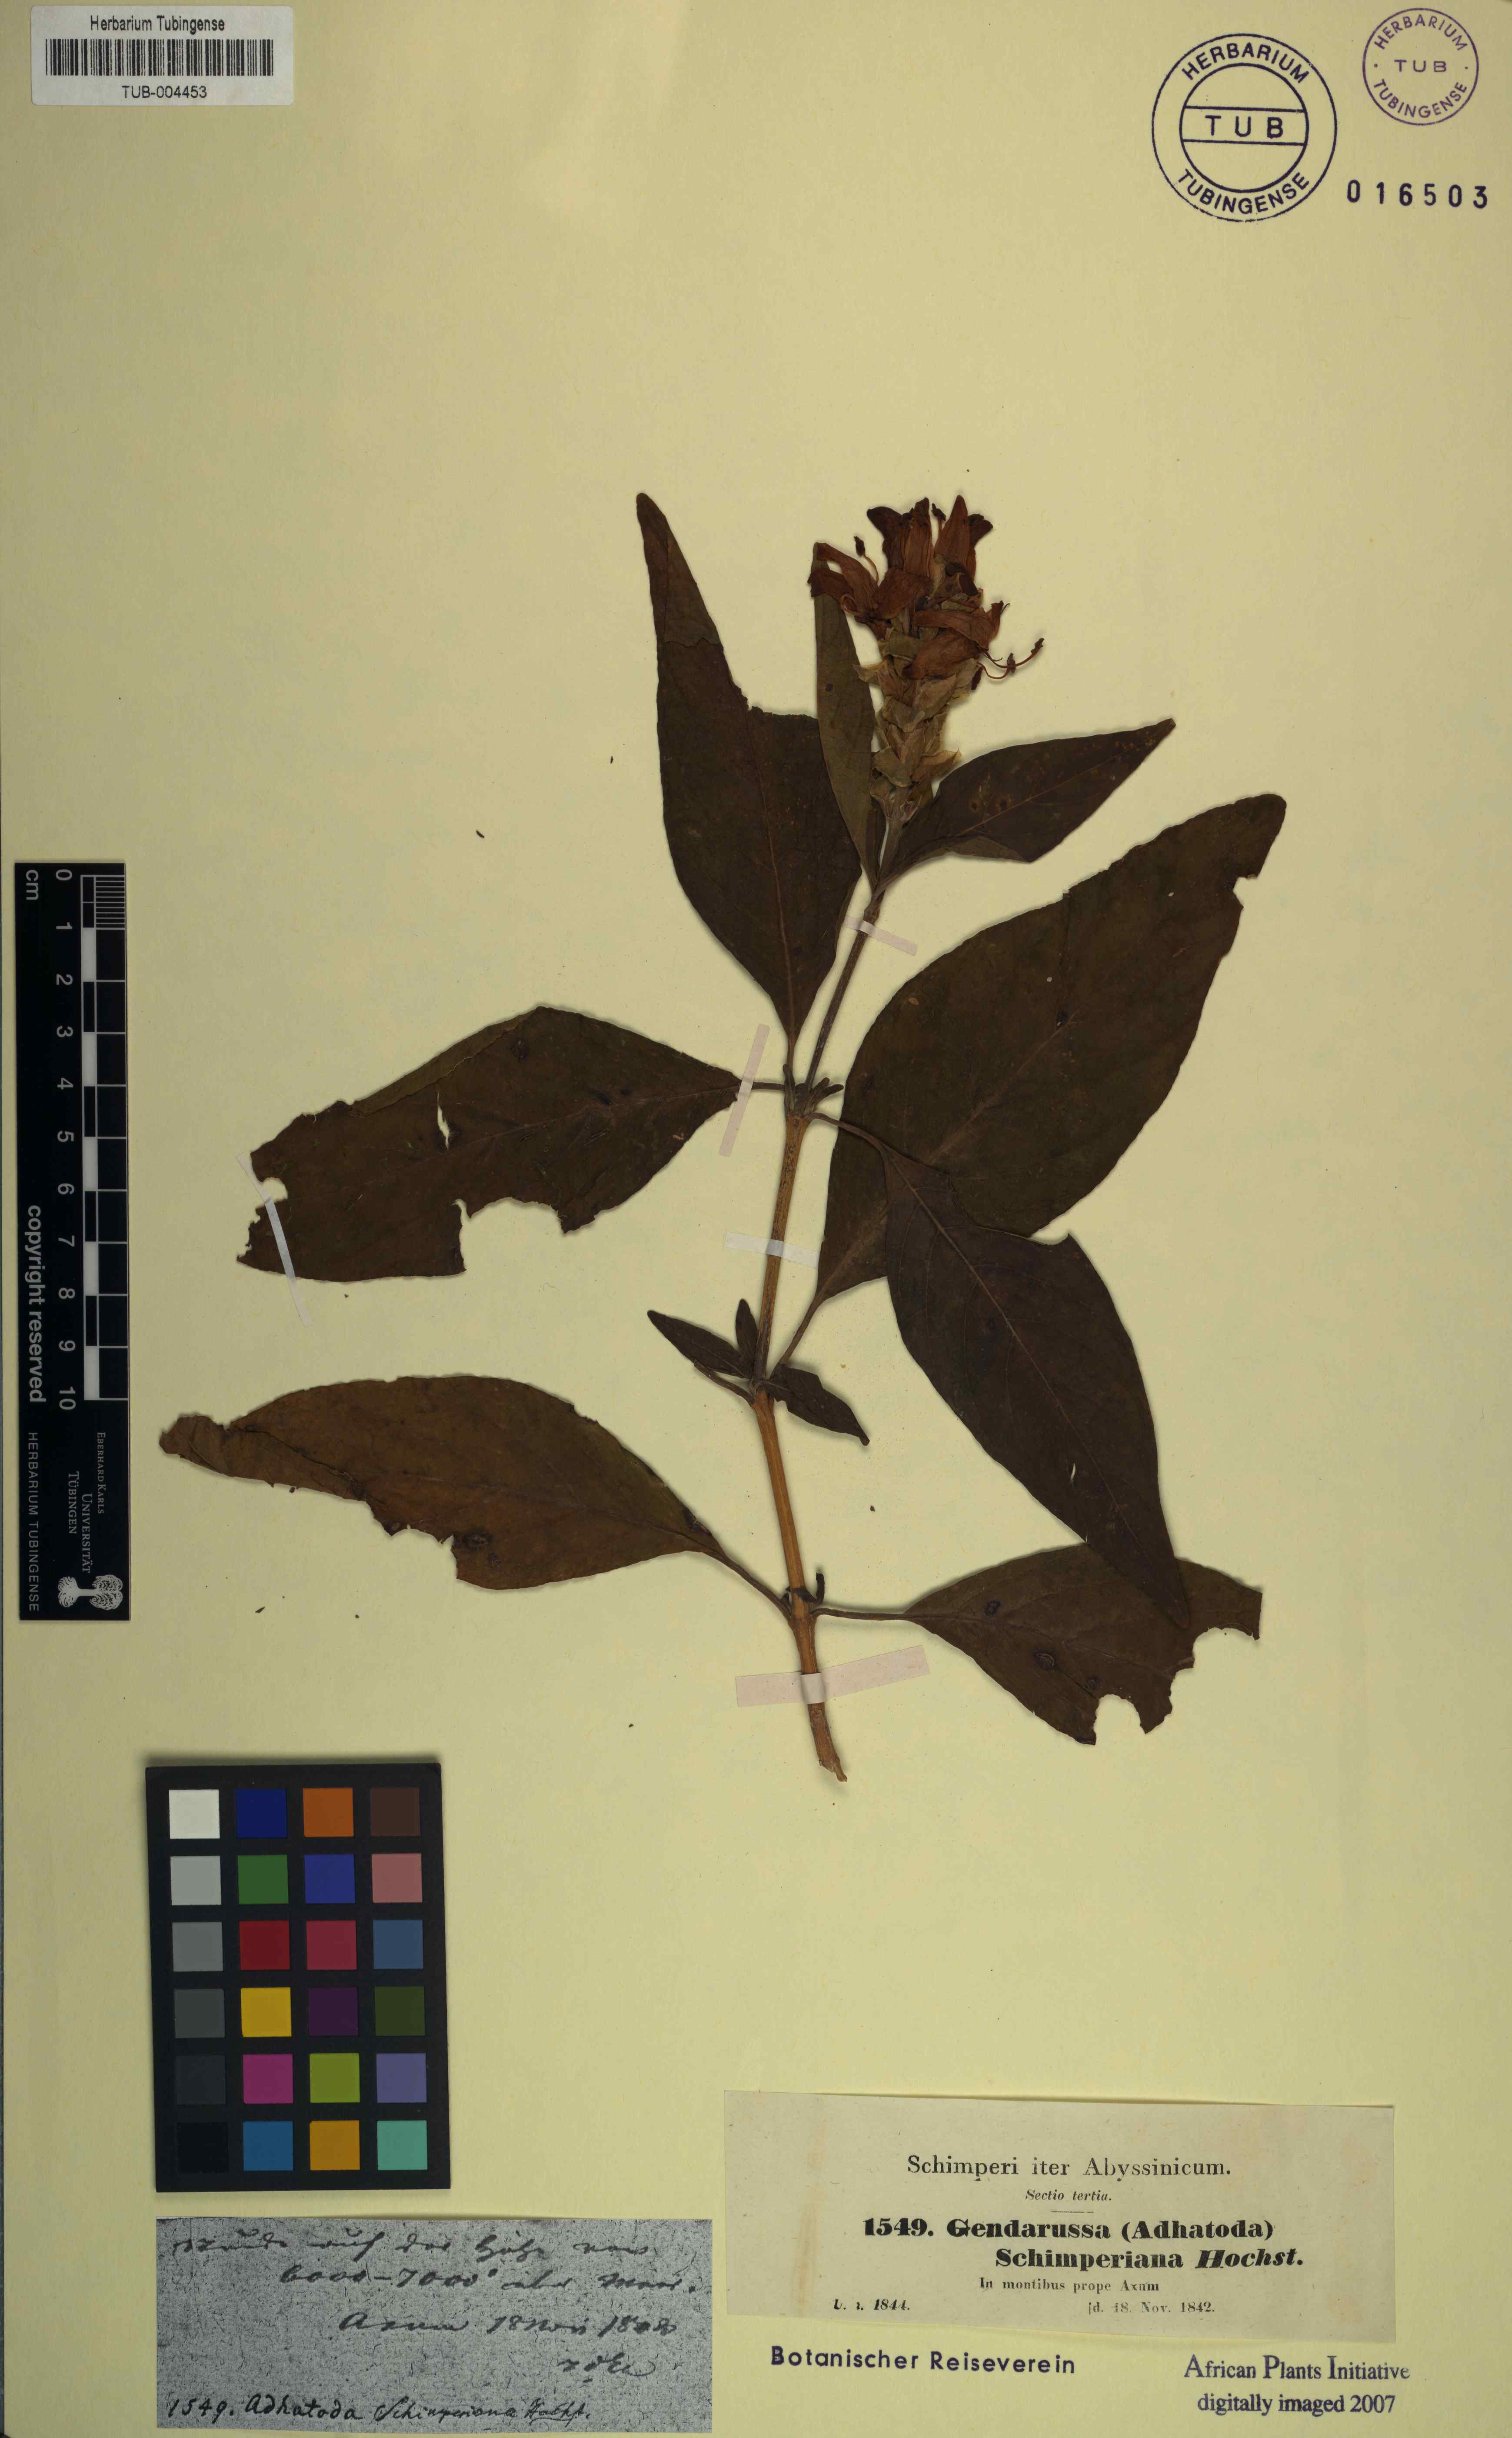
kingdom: Plantae
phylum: Tracheophyta
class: Magnoliopsida
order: Lamiales
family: Acanthaceae
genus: Justicia
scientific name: Justicia schimperiana
